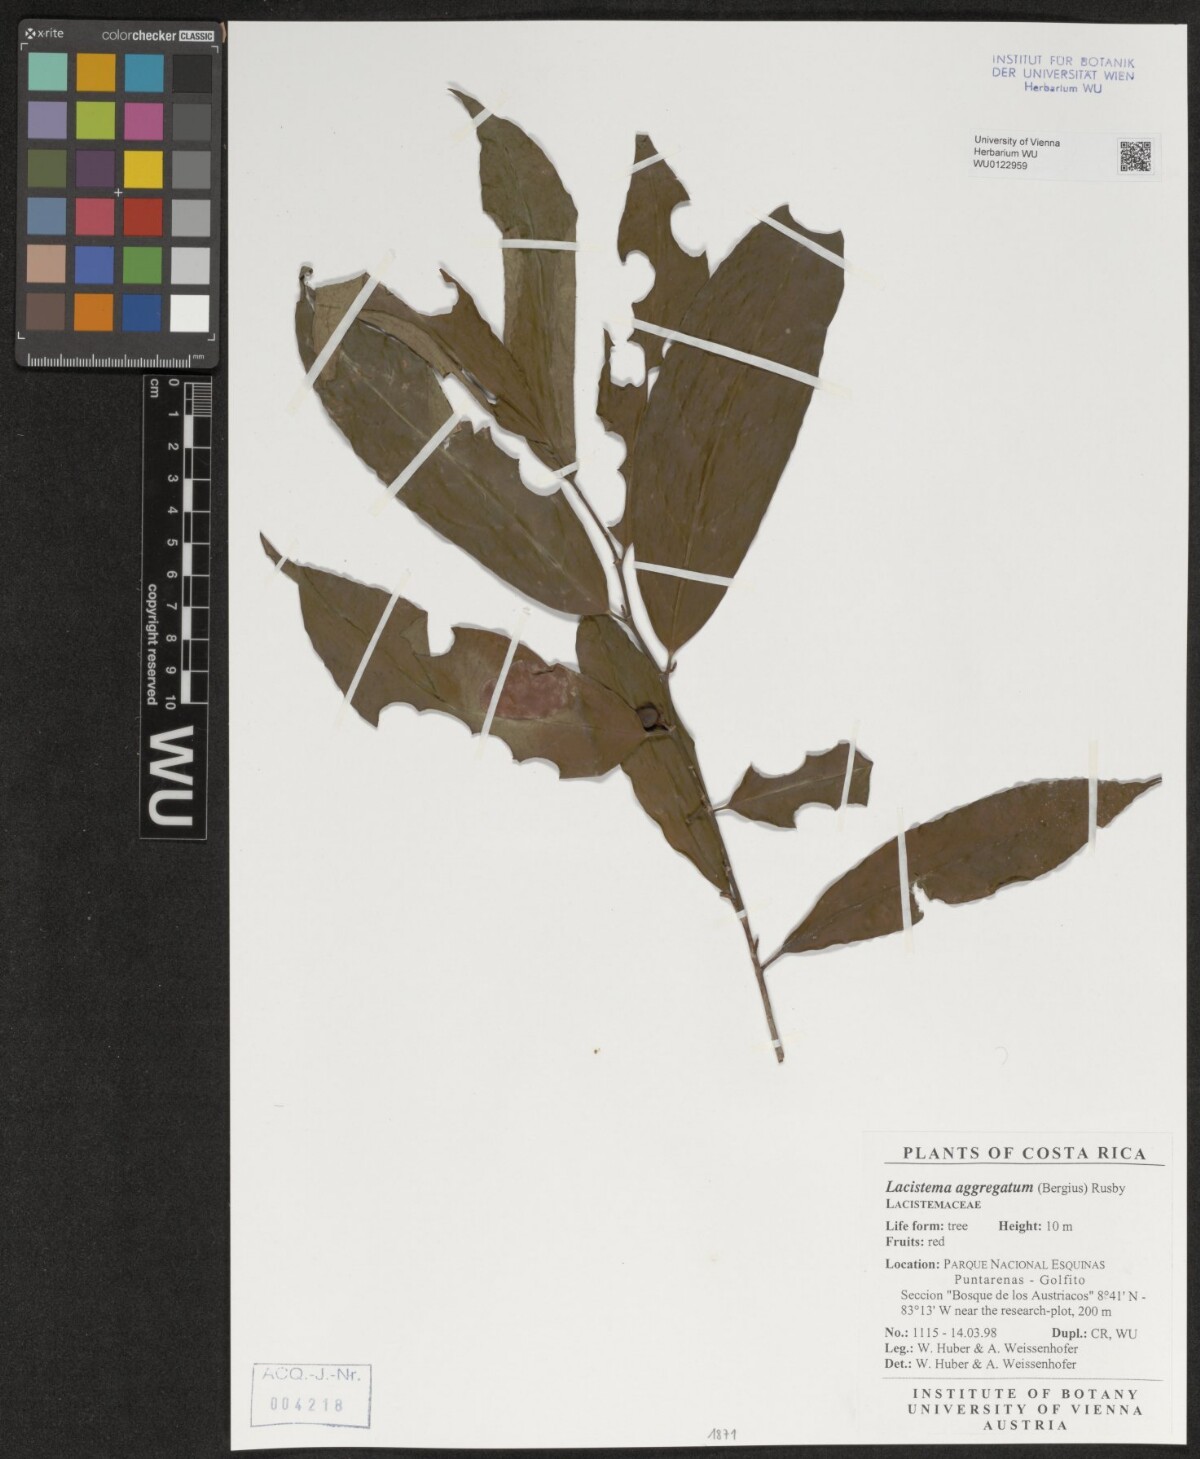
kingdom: Plantae
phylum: Tracheophyta
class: Magnoliopsida
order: Malpighiales
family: Lacistemataceae
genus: Lacistema
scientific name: Lacistema aggregatum
